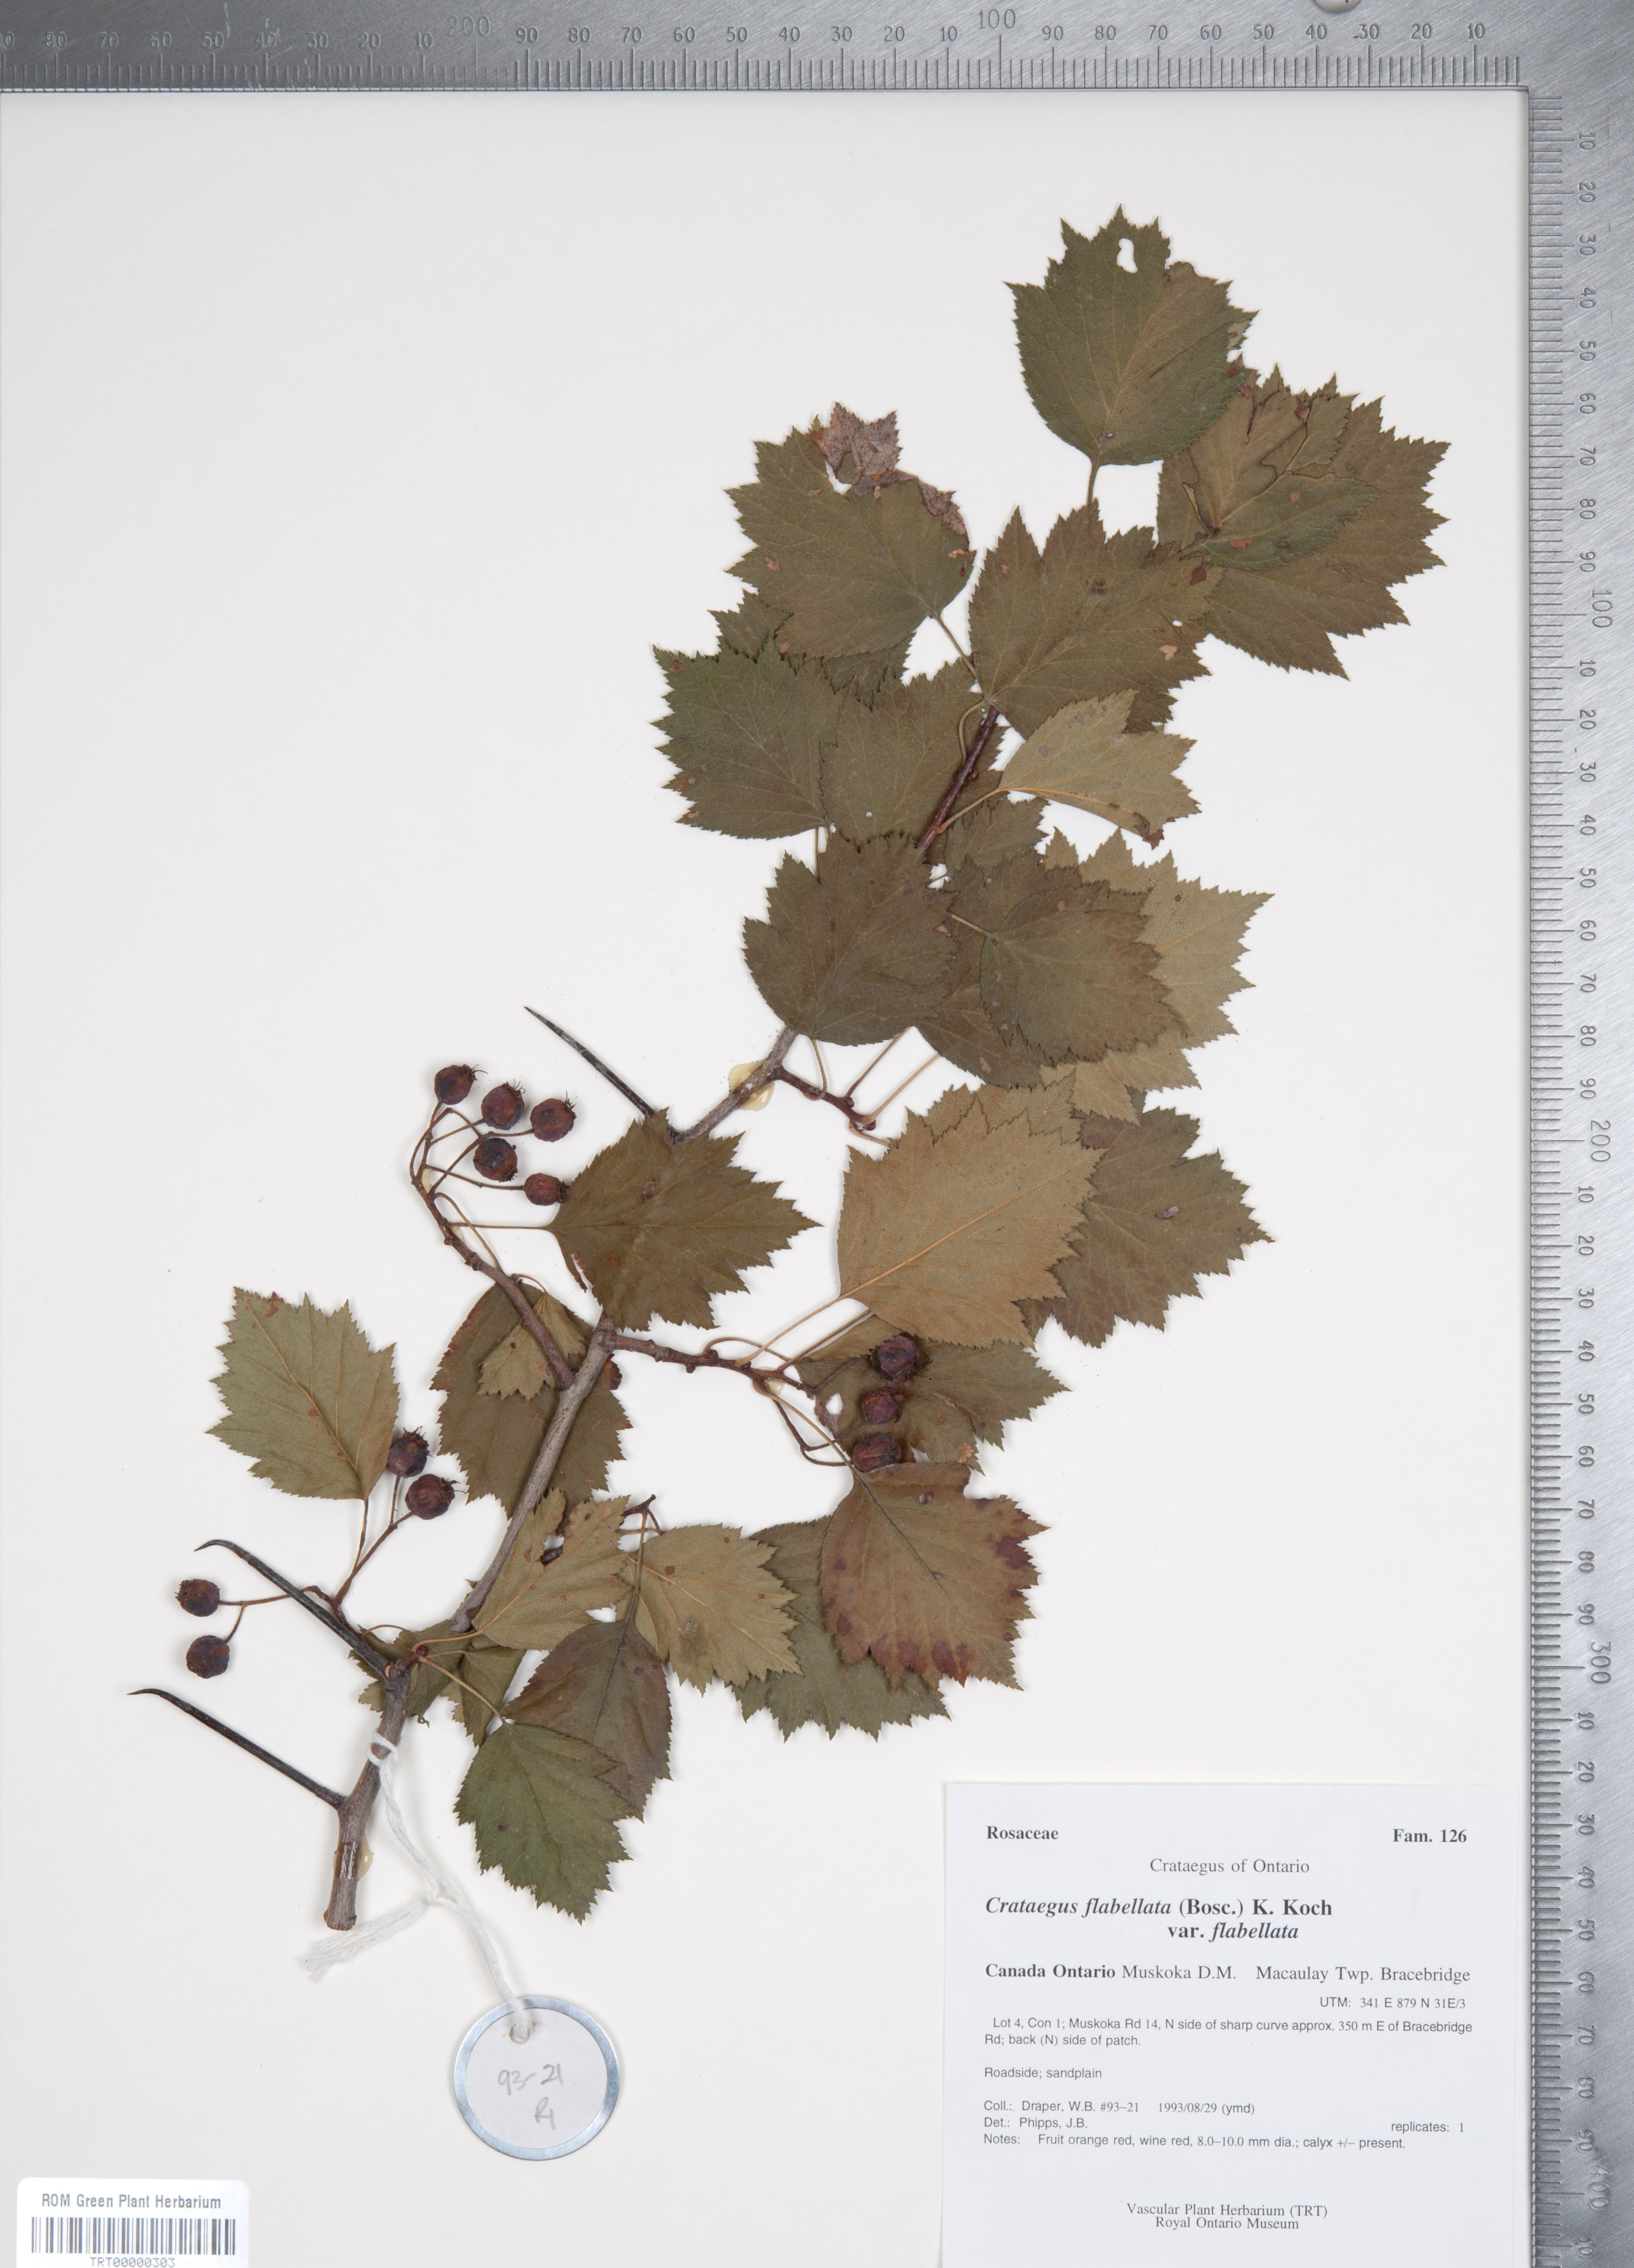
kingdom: Plantae
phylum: Tracheophyta
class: Magnoliopsida
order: Rosales
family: Rosaceae
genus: Crataegus
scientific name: Crataegus flabellata
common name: Bosc's hawthorn
